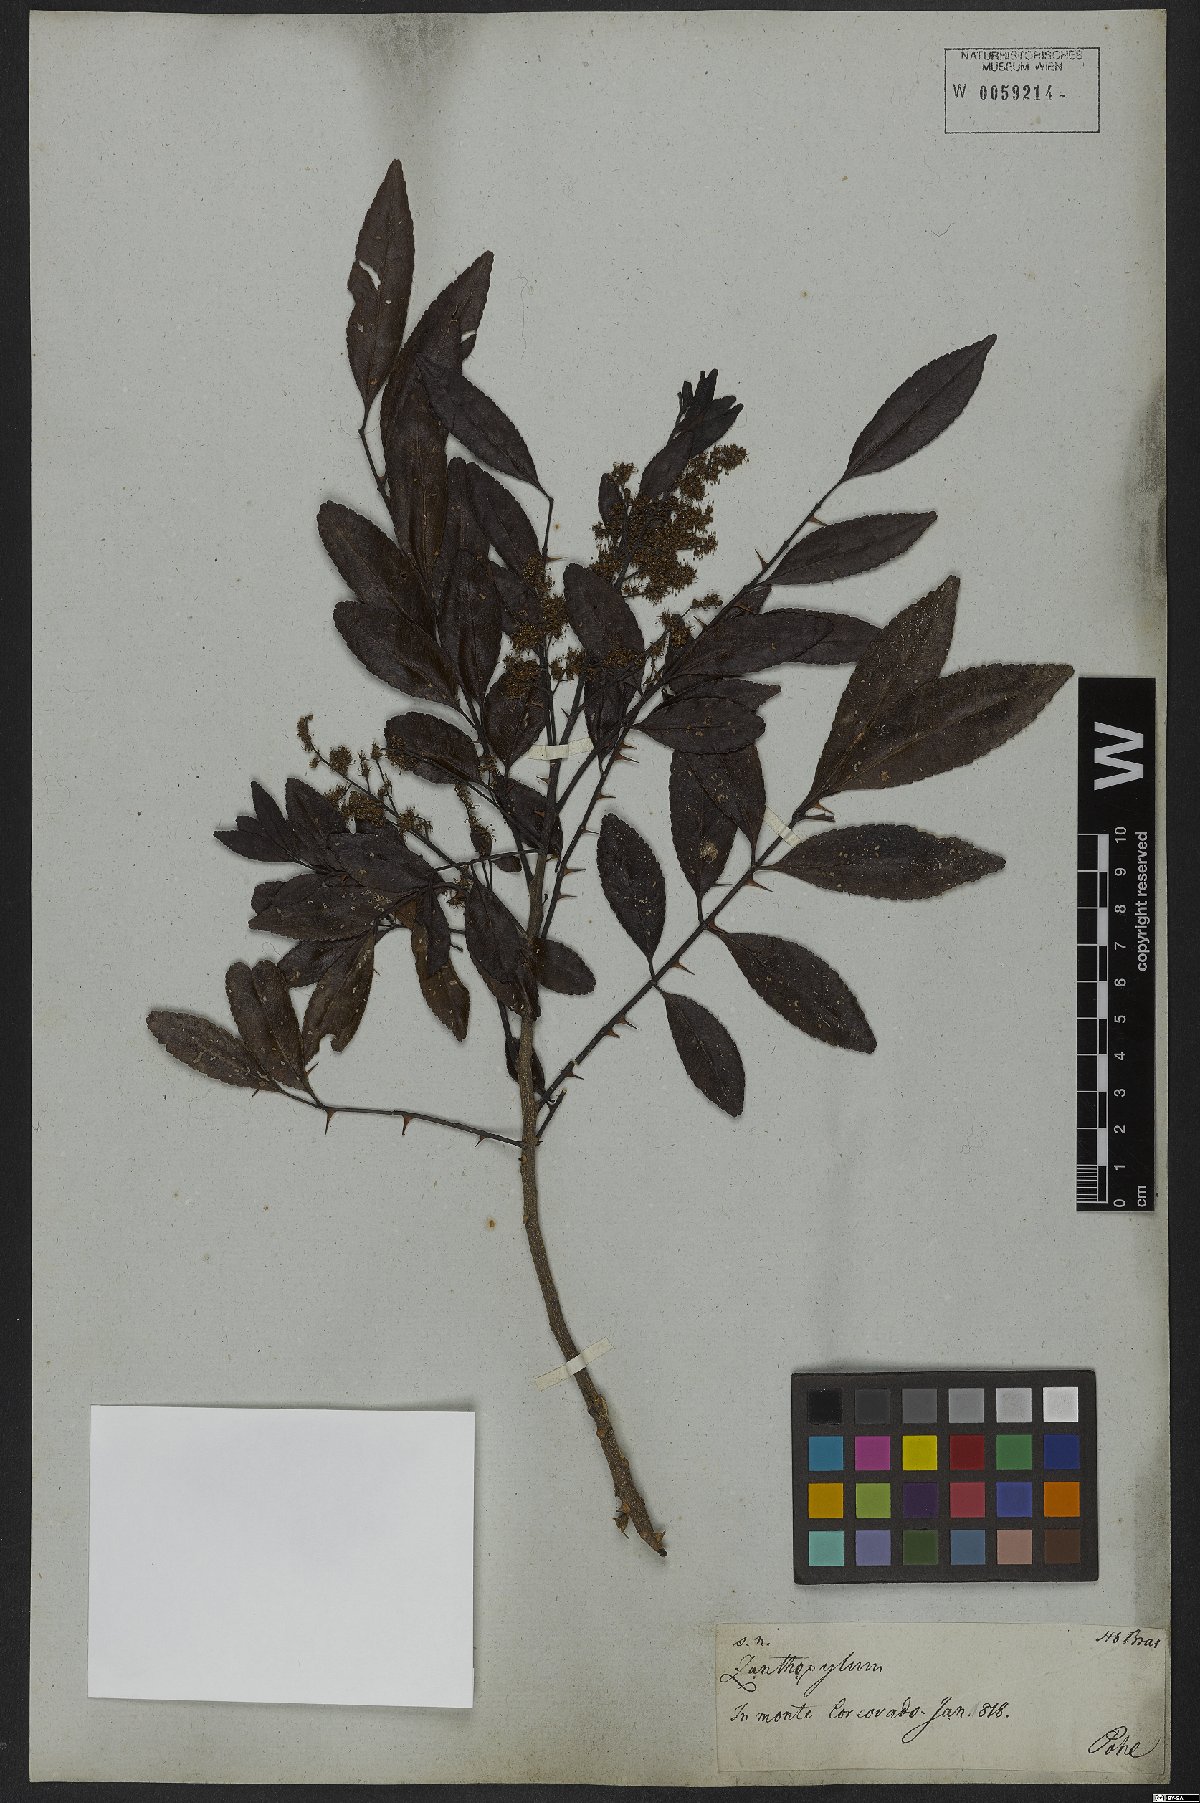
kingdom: Plantae
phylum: Tracheophyta
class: Magnoliopsida
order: Sapindales
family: Rutaceae
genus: Zanthoxylum
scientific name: Zanthoxylum rhoifolium
